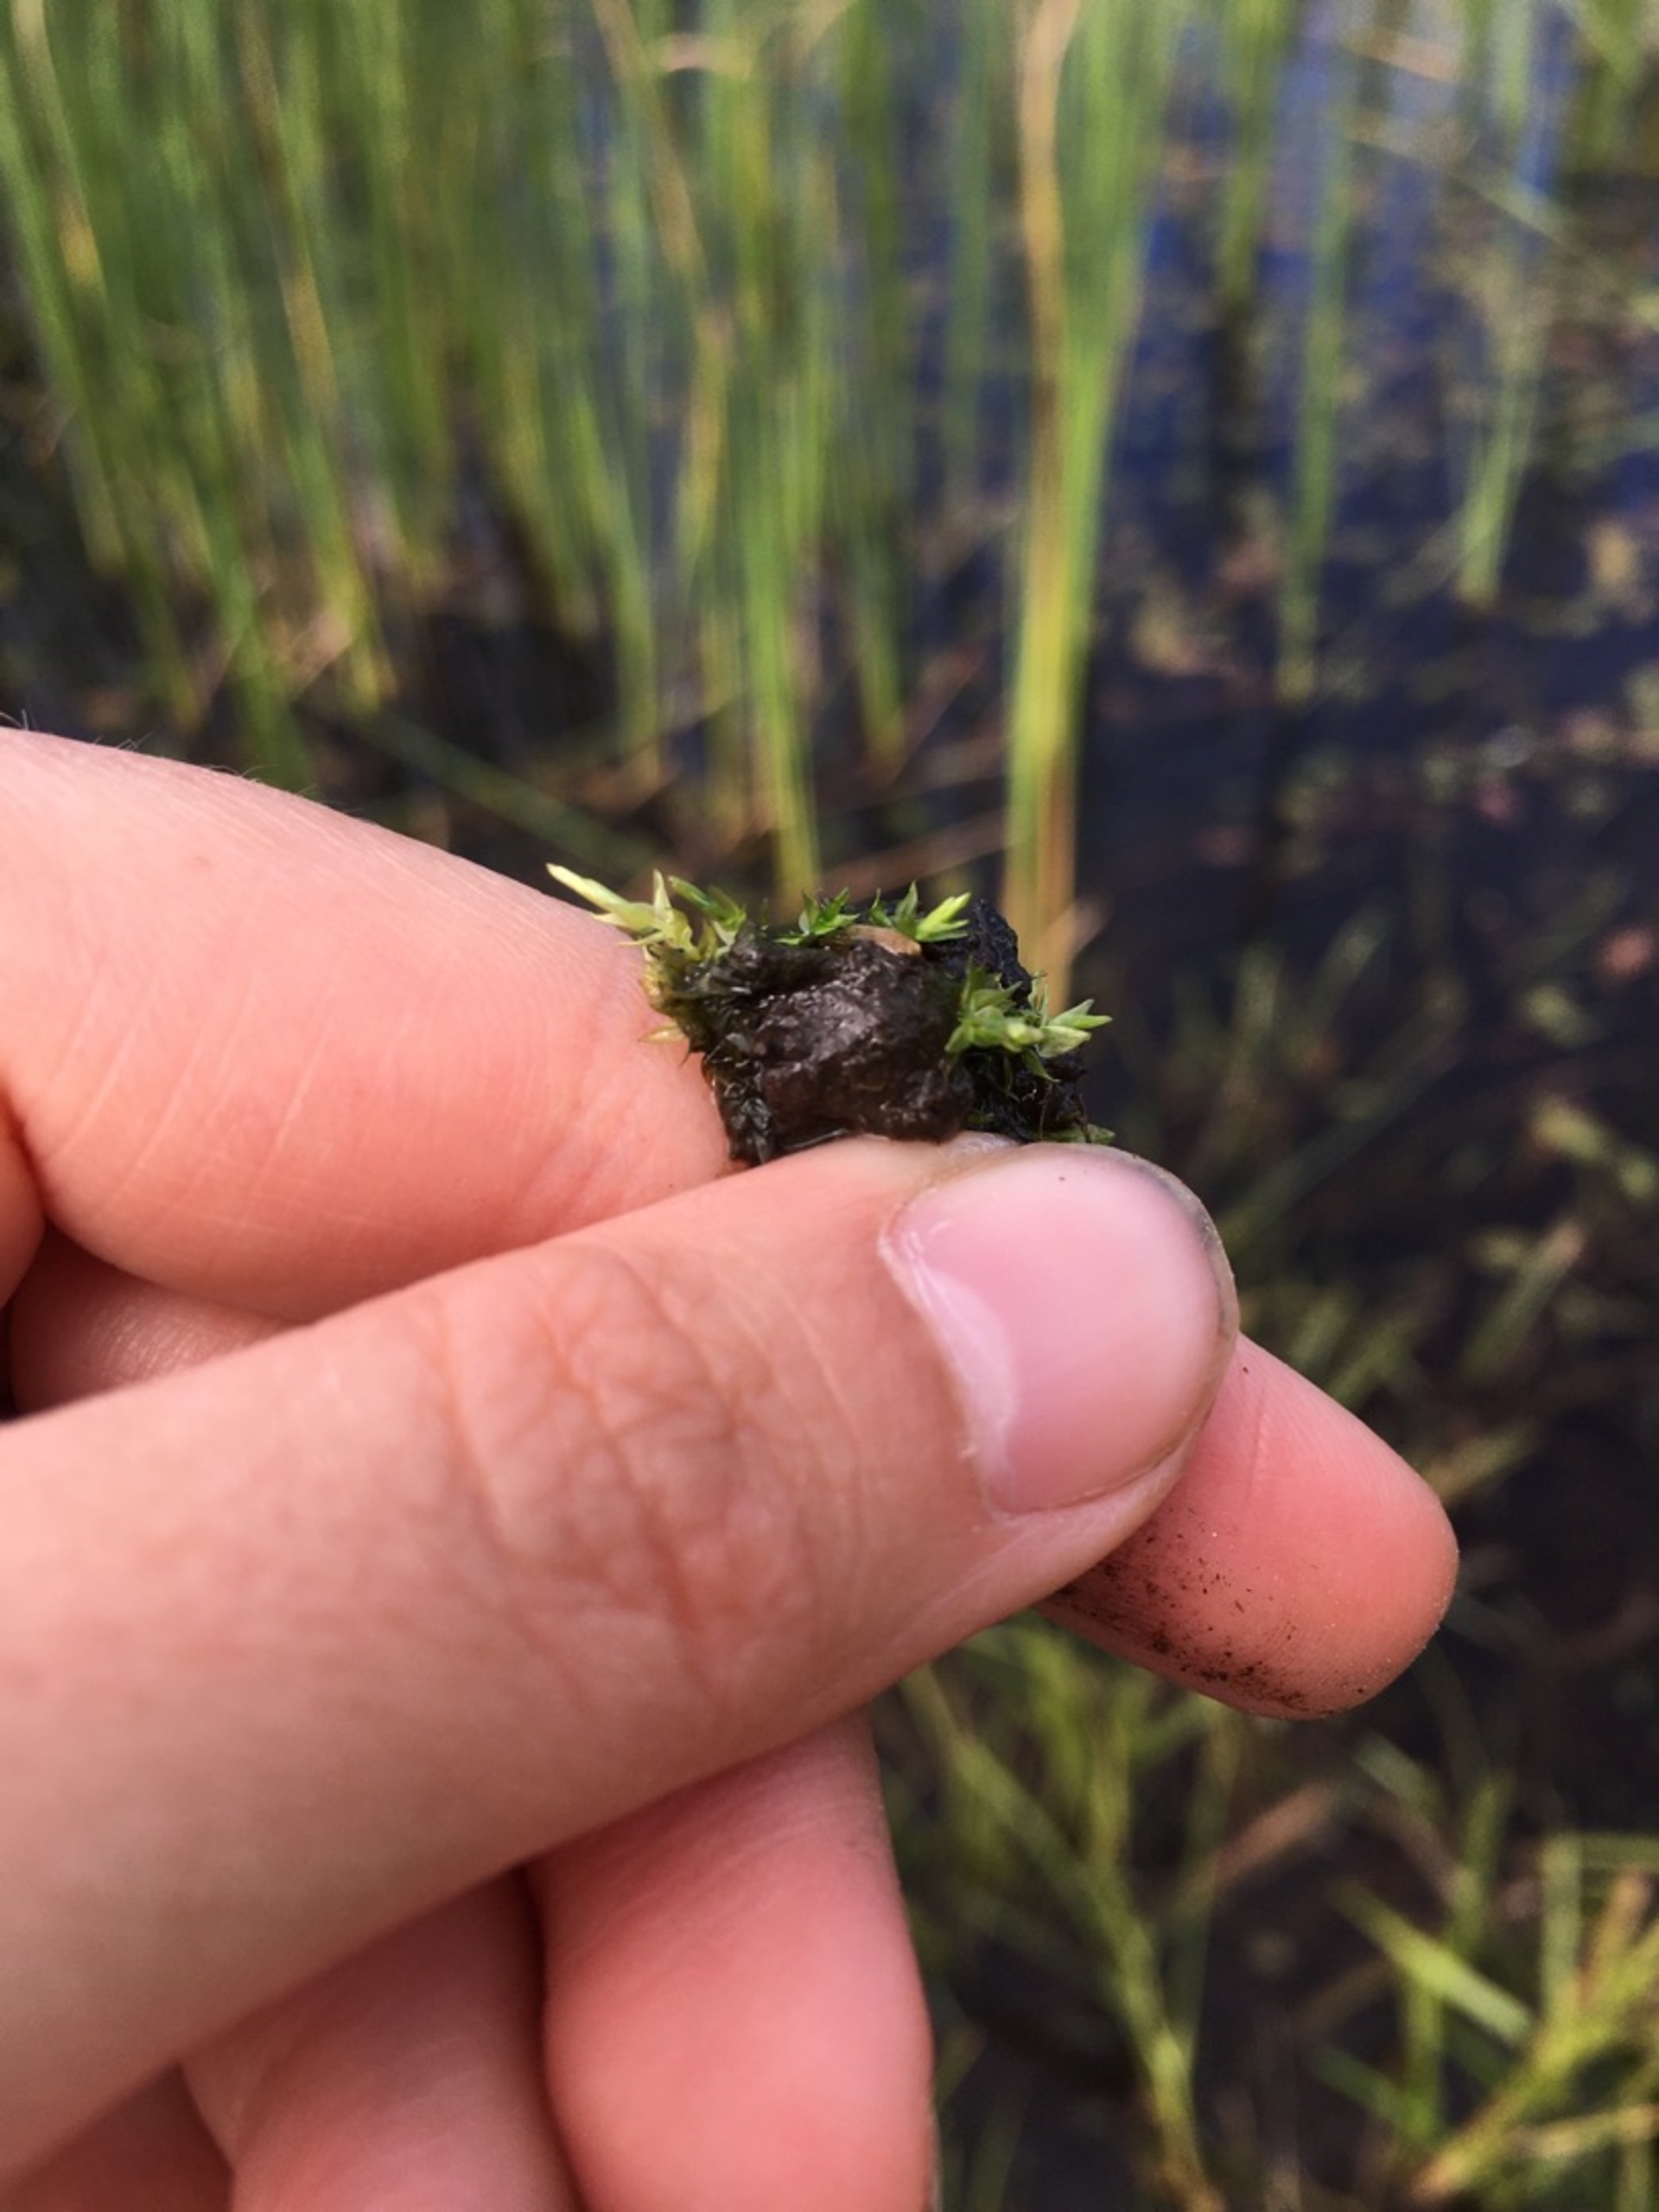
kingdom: Plantae
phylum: Bryophyta
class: Bryopsida
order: Hypnales
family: Calliergonaceae
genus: Calliergon
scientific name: Calliergon cordifolium
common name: Almindelig skebladsmos
